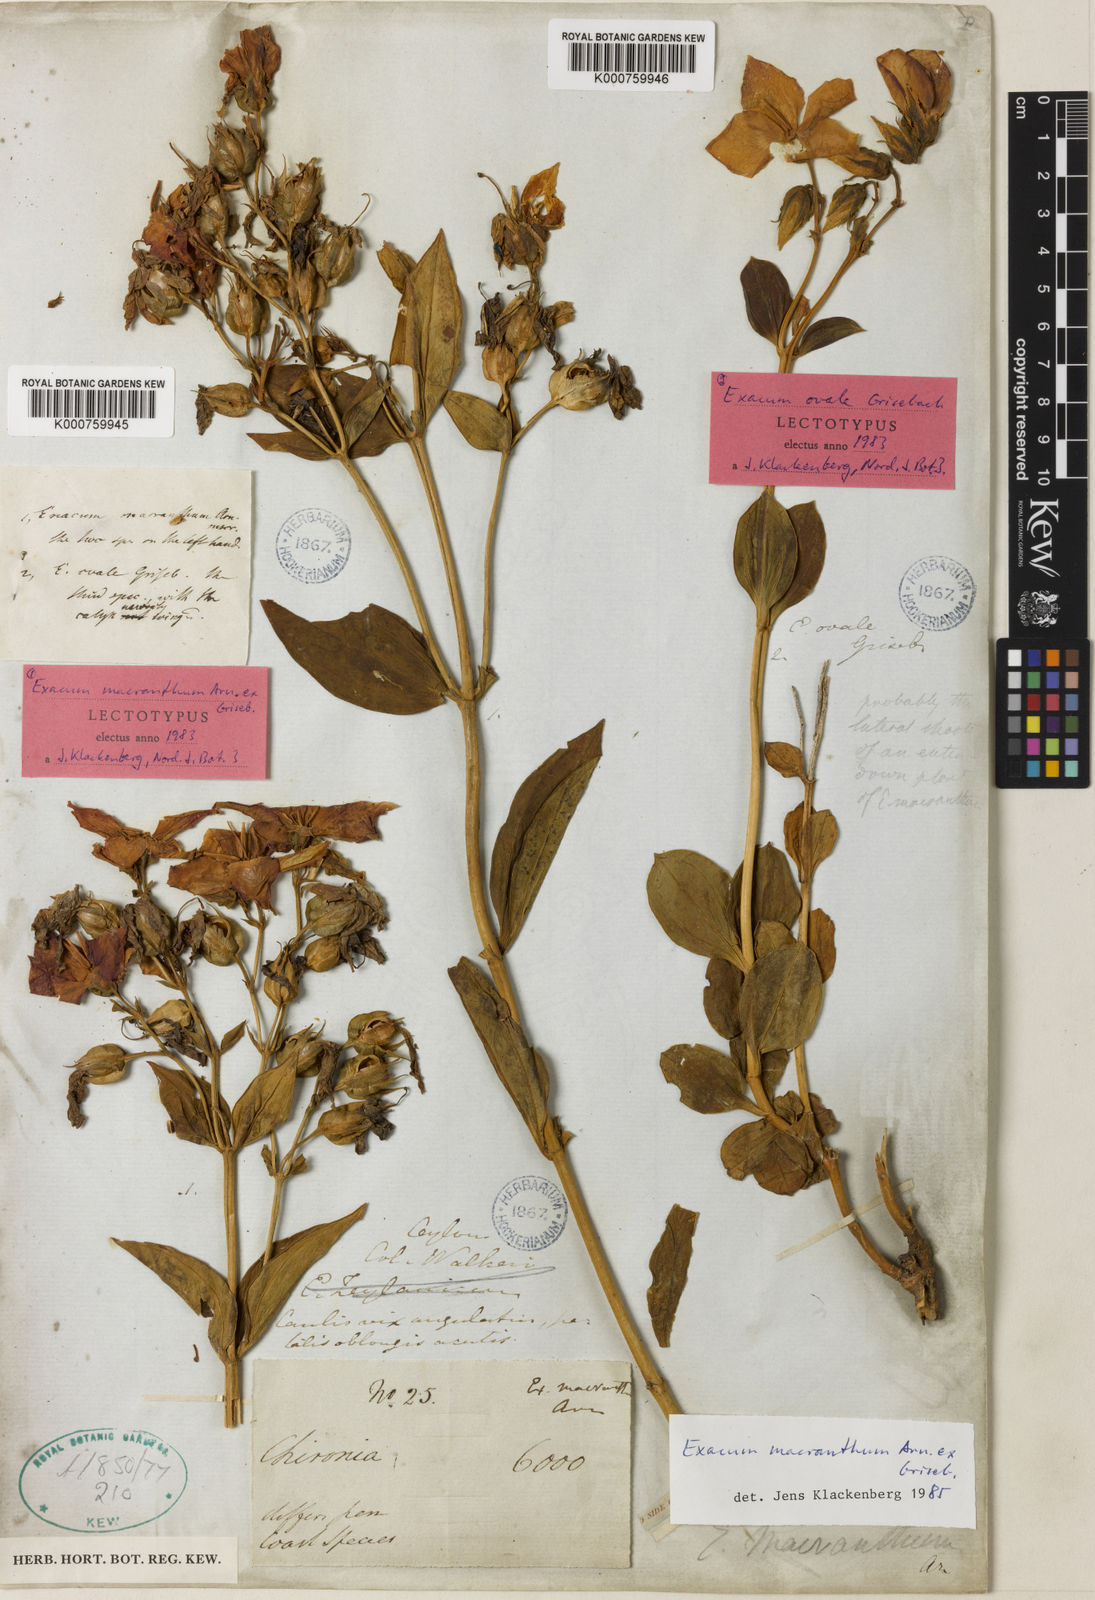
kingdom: Plantae
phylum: Tracheophyta
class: Magnoliopsida
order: Gentianales
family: Gentianaceae
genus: Exacum
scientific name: Exacum macranthum
